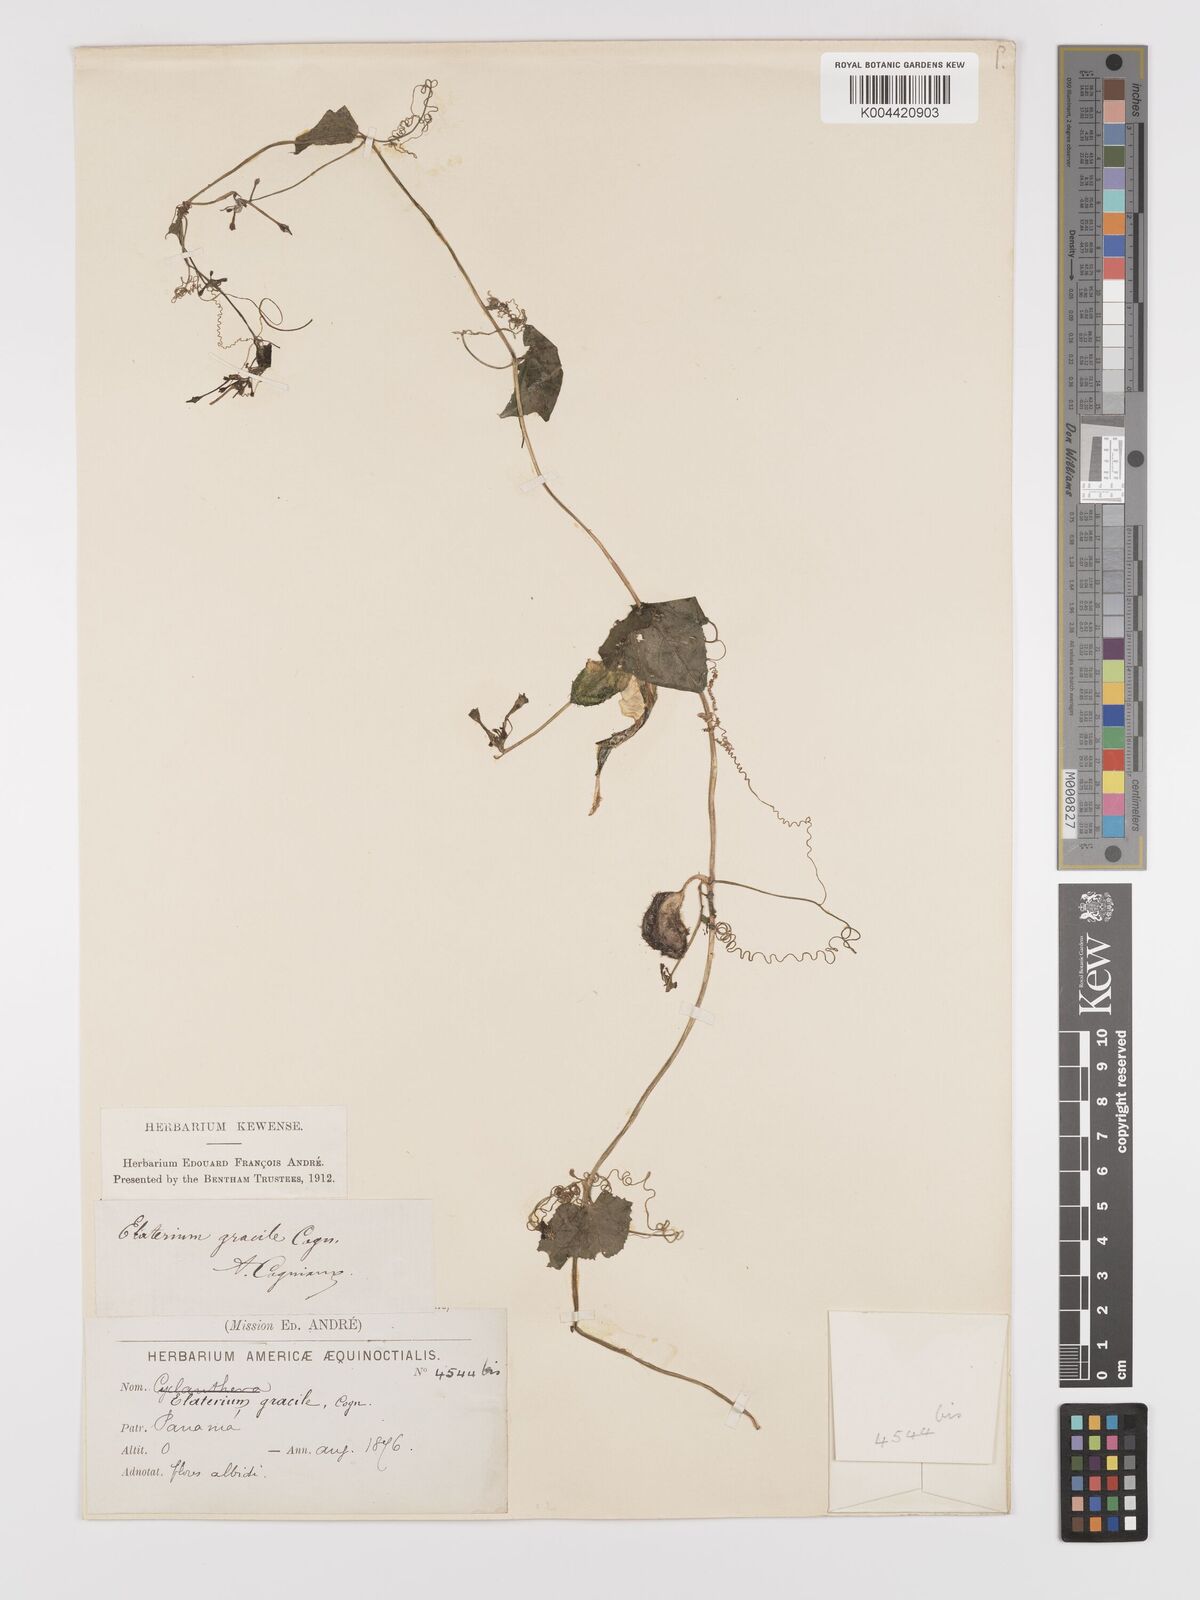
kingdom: Plantae
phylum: Tracheophyta
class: Magnoliopsida
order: Cucurbitales
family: Cucurbitaceae
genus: Cyclanthera
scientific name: Cyclanthera filiformis
